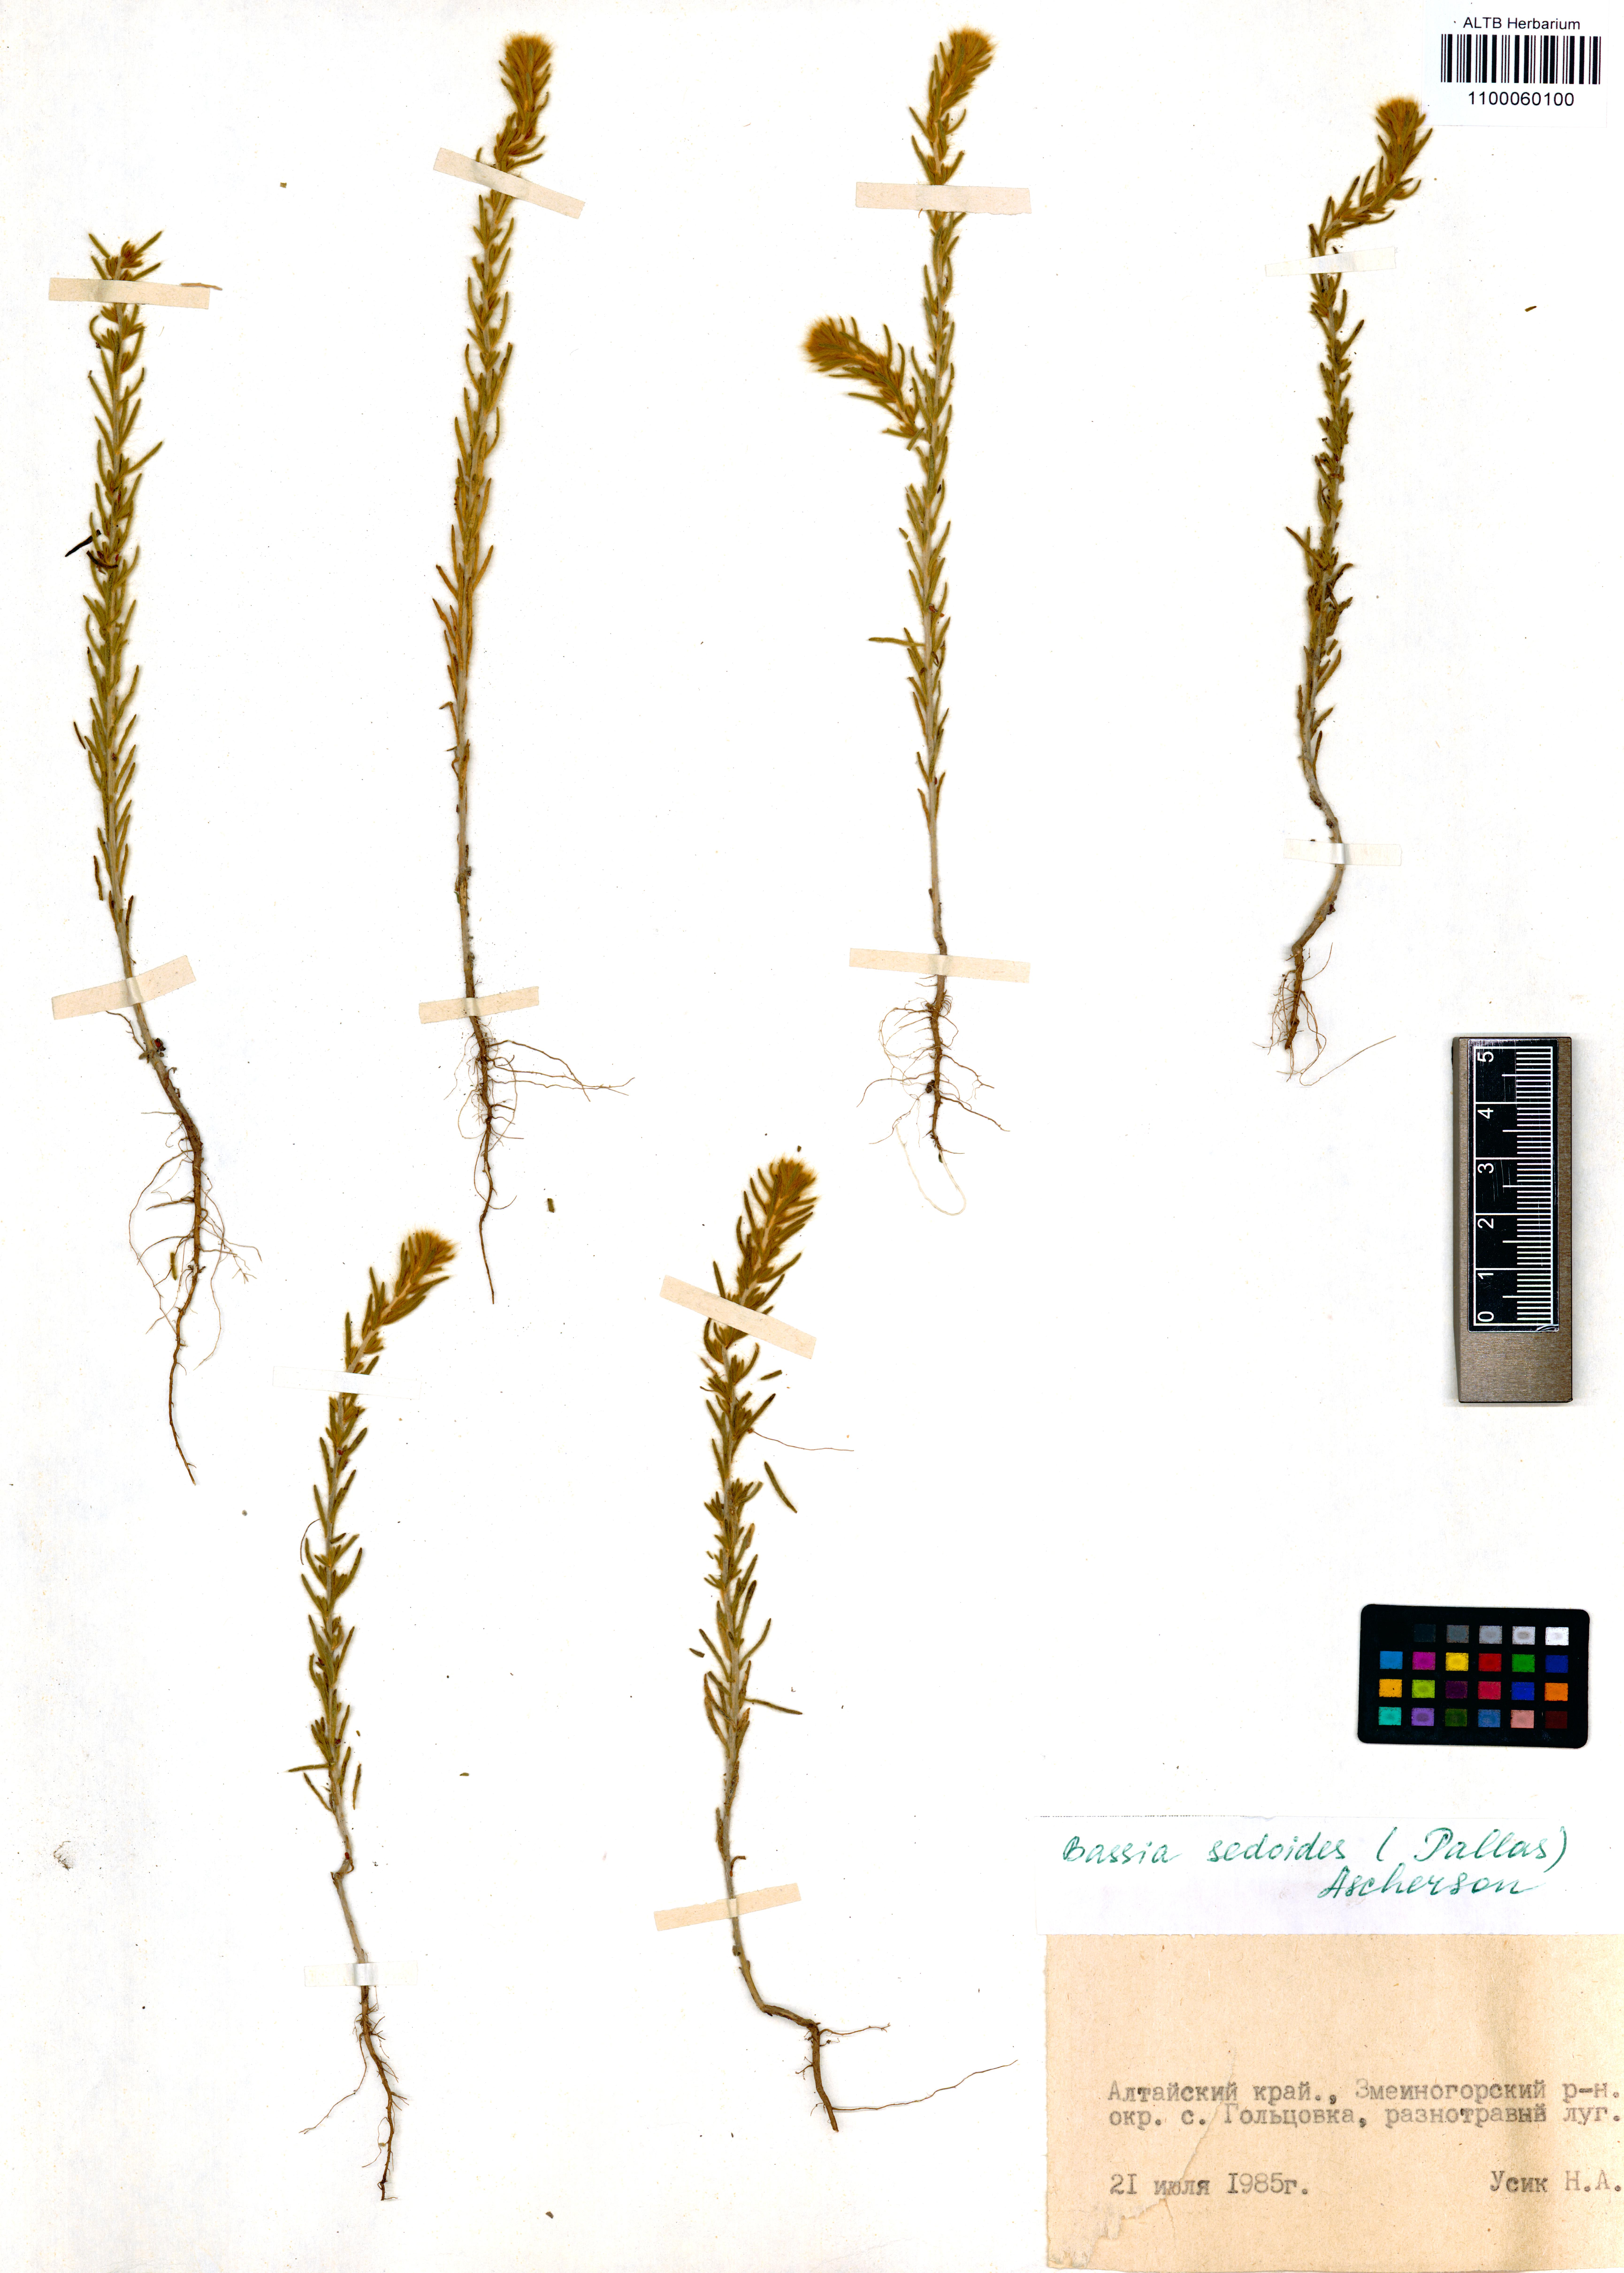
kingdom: Plantae
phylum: Tracheophyta
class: Magnoliopsida
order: Caryophyllales
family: Amaranthaceae
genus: Sedobassia
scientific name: Sedobassia sedoides
